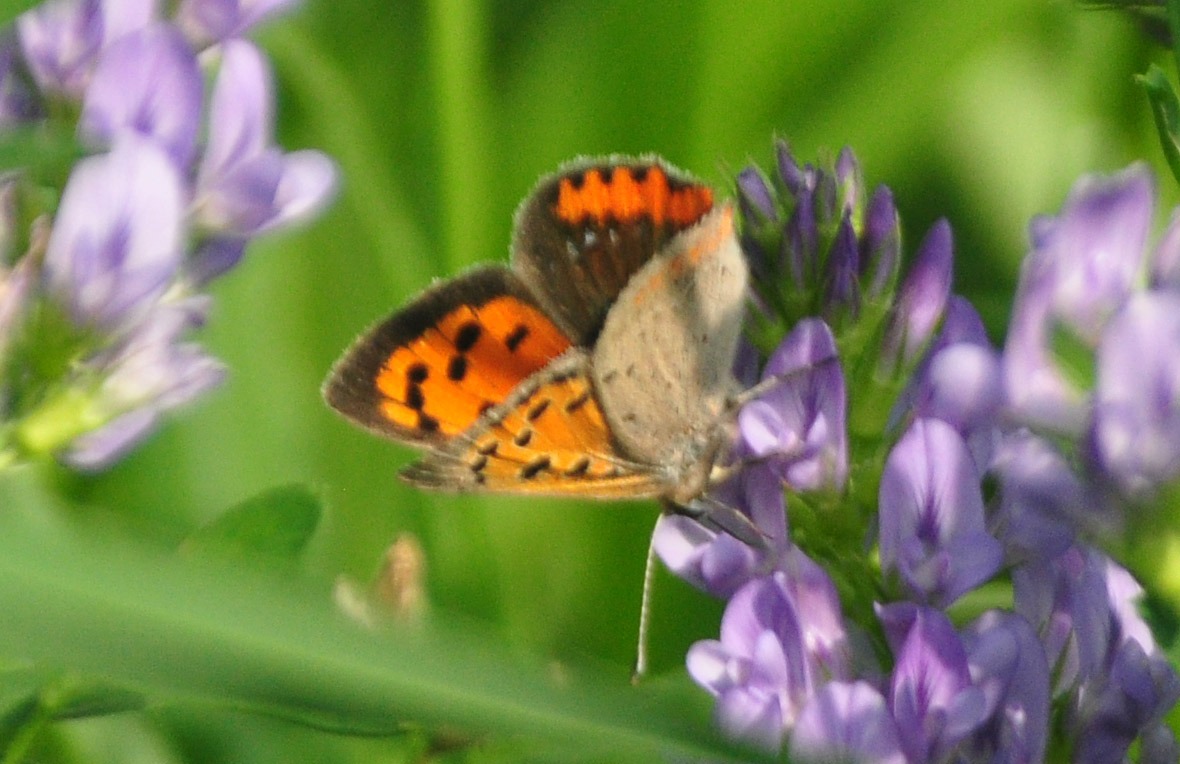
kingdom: Animalia
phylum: Arthropoda
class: Insecta
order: Lepidoptera
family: Lycaenidae
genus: Lycaena
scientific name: Lycaena phlaeas
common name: Lille ildfugl
